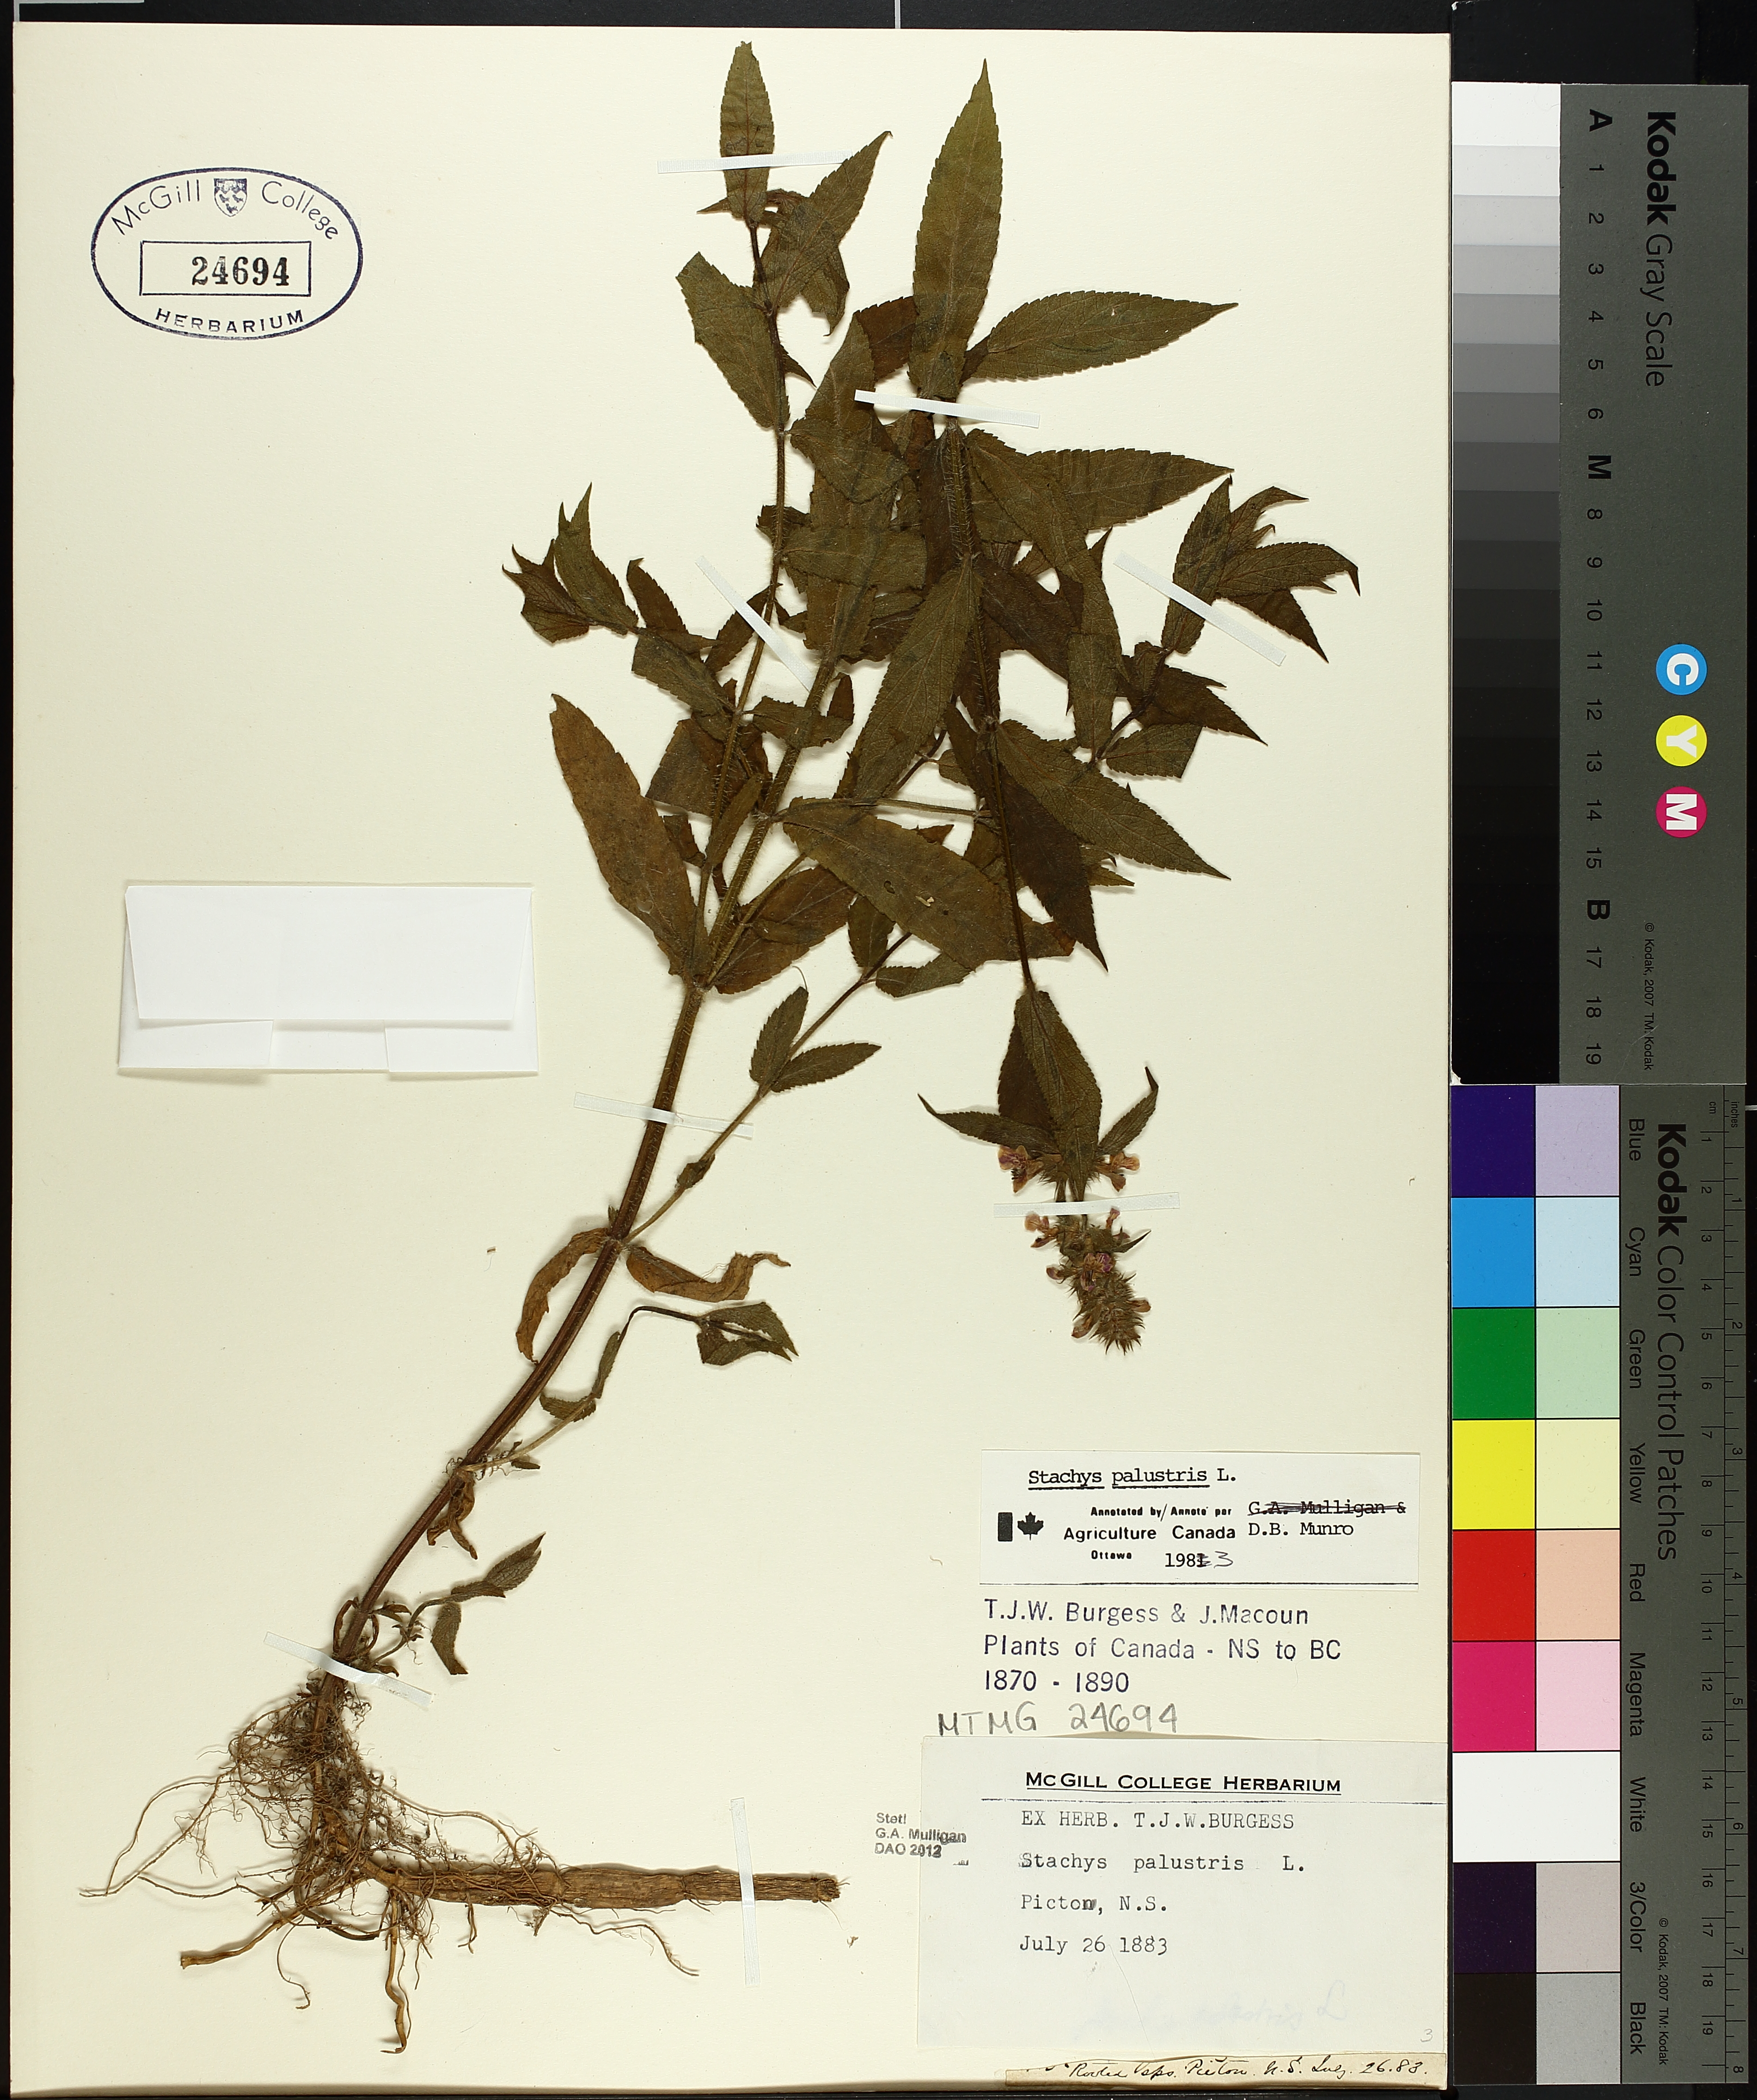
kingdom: Plantae
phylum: Tracheophyta
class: Magnoliopsida
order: Lamiales
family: Lamiaceae
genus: Stachys
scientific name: Stachys palustris
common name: Marsh woundwort
